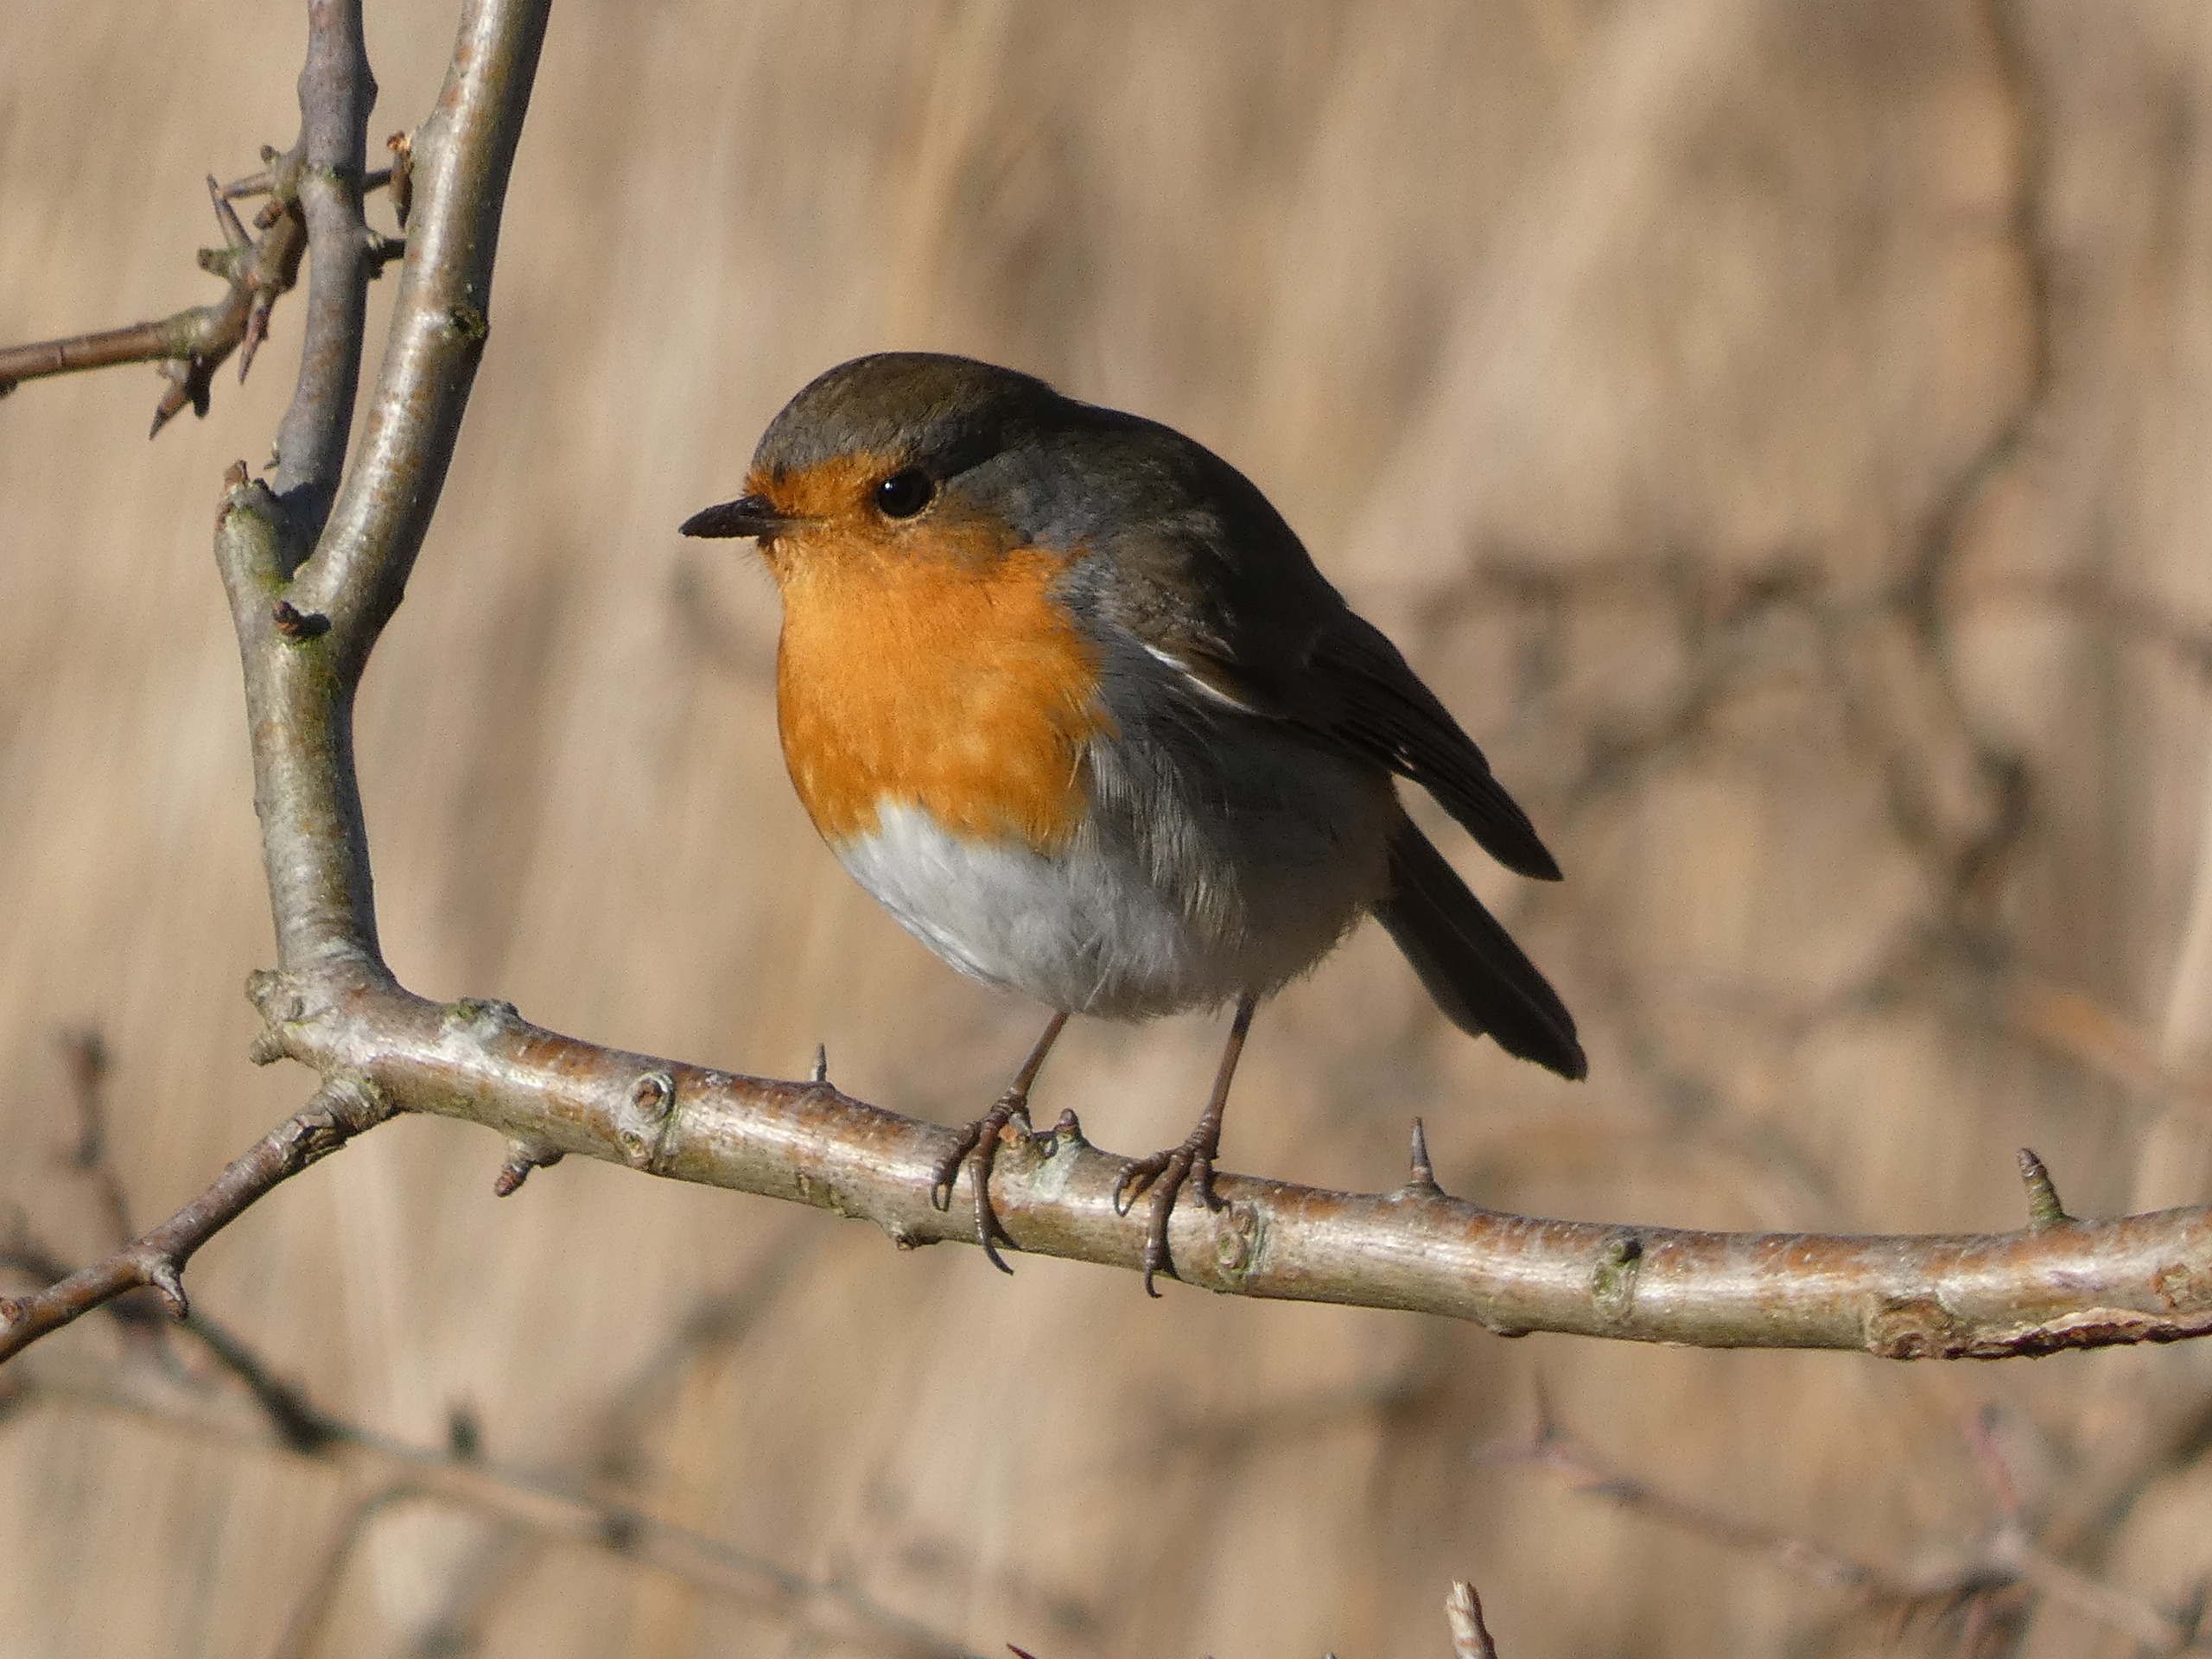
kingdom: Animalia
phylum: Chordata
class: Aves
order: Passeriformes
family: Muscicapidae
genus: Erithacus
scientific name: Erithacus rubecula
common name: Rødhals/rødkælk
